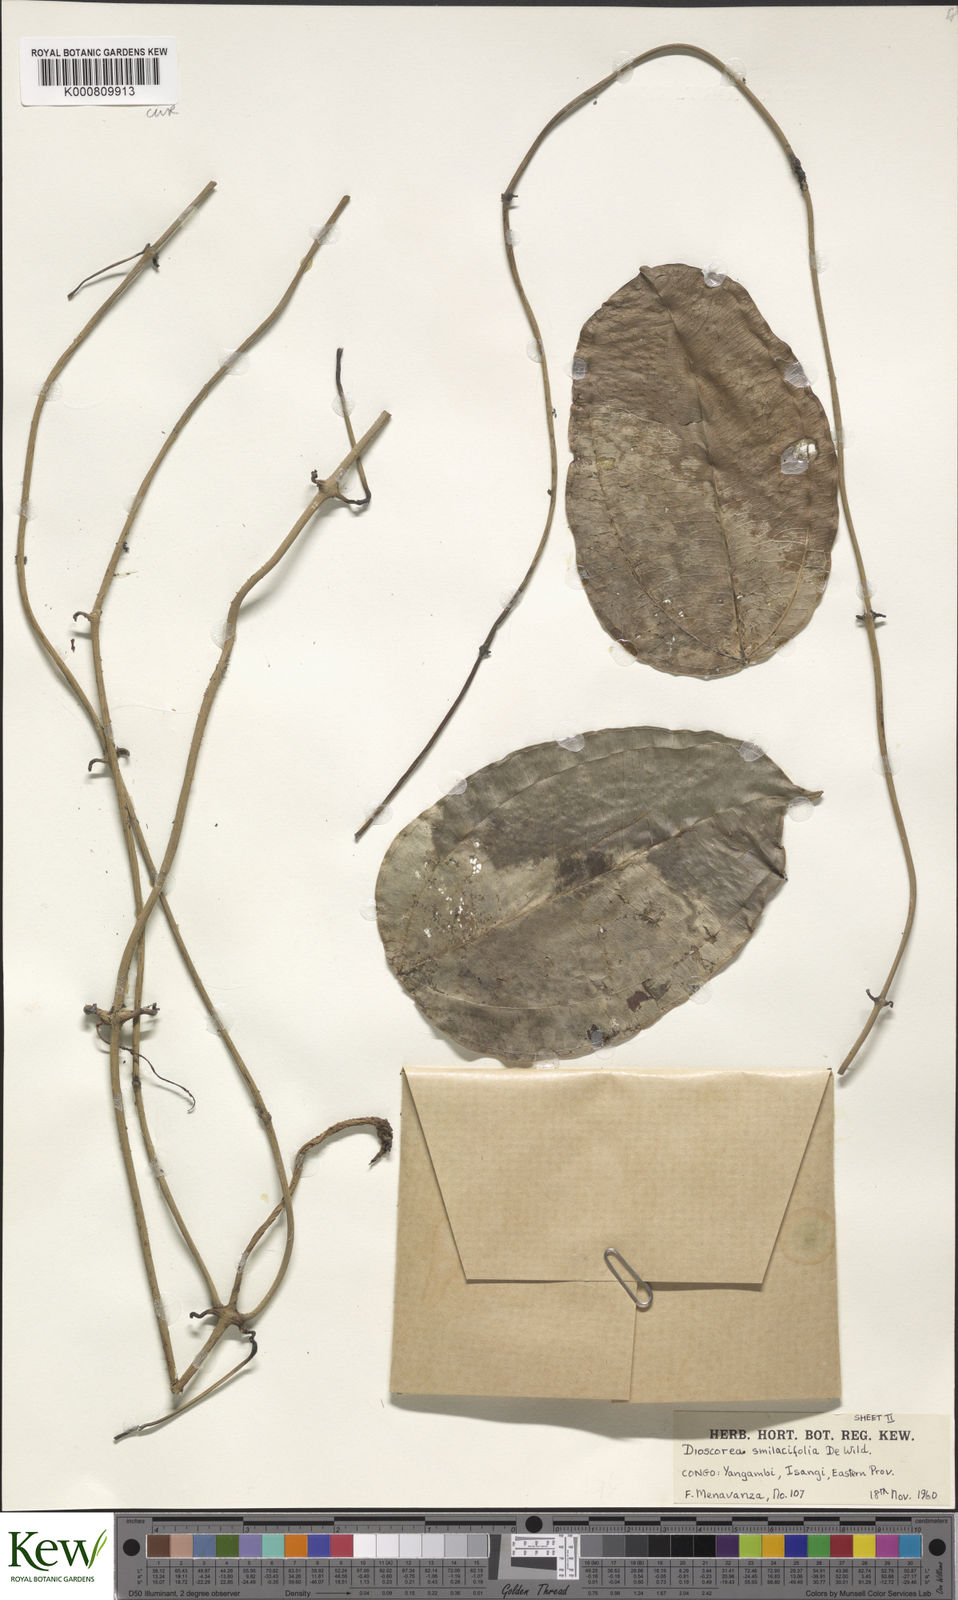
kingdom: Plantae
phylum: Tracheophyta
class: Liliopsida
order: Dioscoreales
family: Dioscoreaceae
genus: Dioscorea
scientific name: Dioscorea smilacifolia
